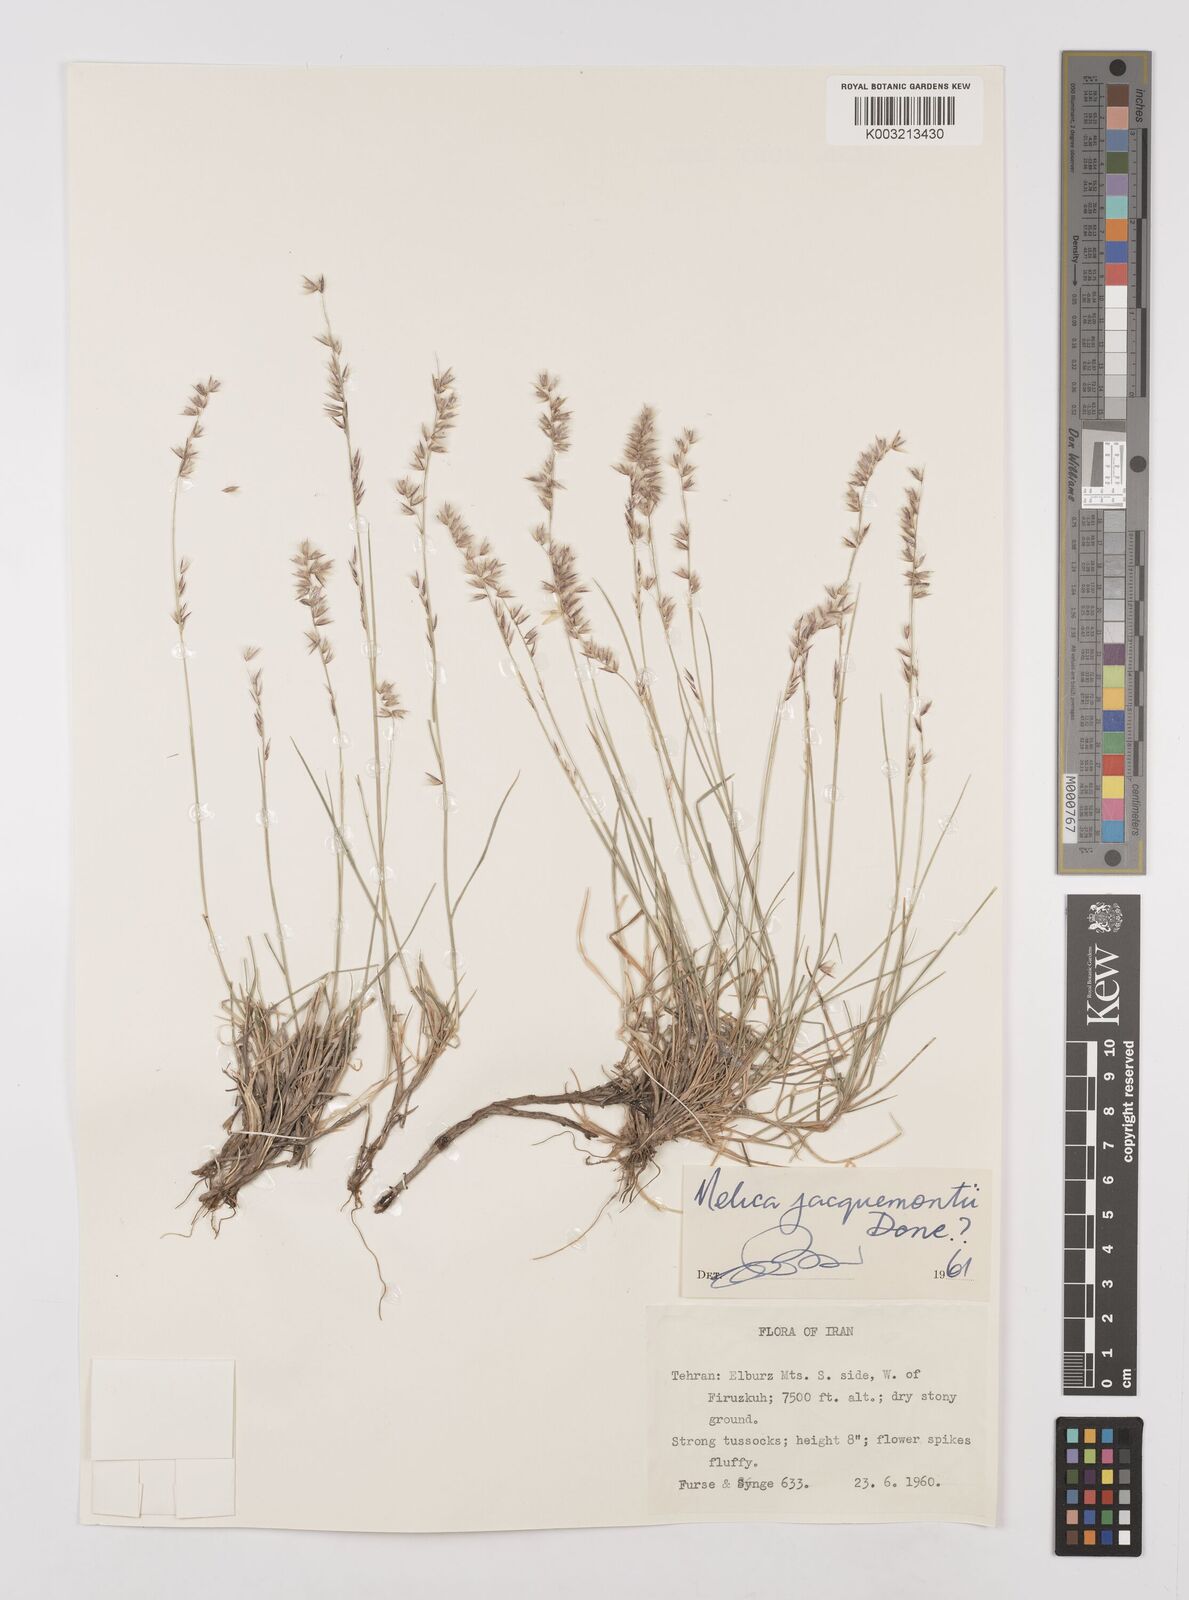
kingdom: Plantae
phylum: Tracheophyta
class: Liliopsida
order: Poales
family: Poaceae
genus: Melica
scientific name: Melica persica
